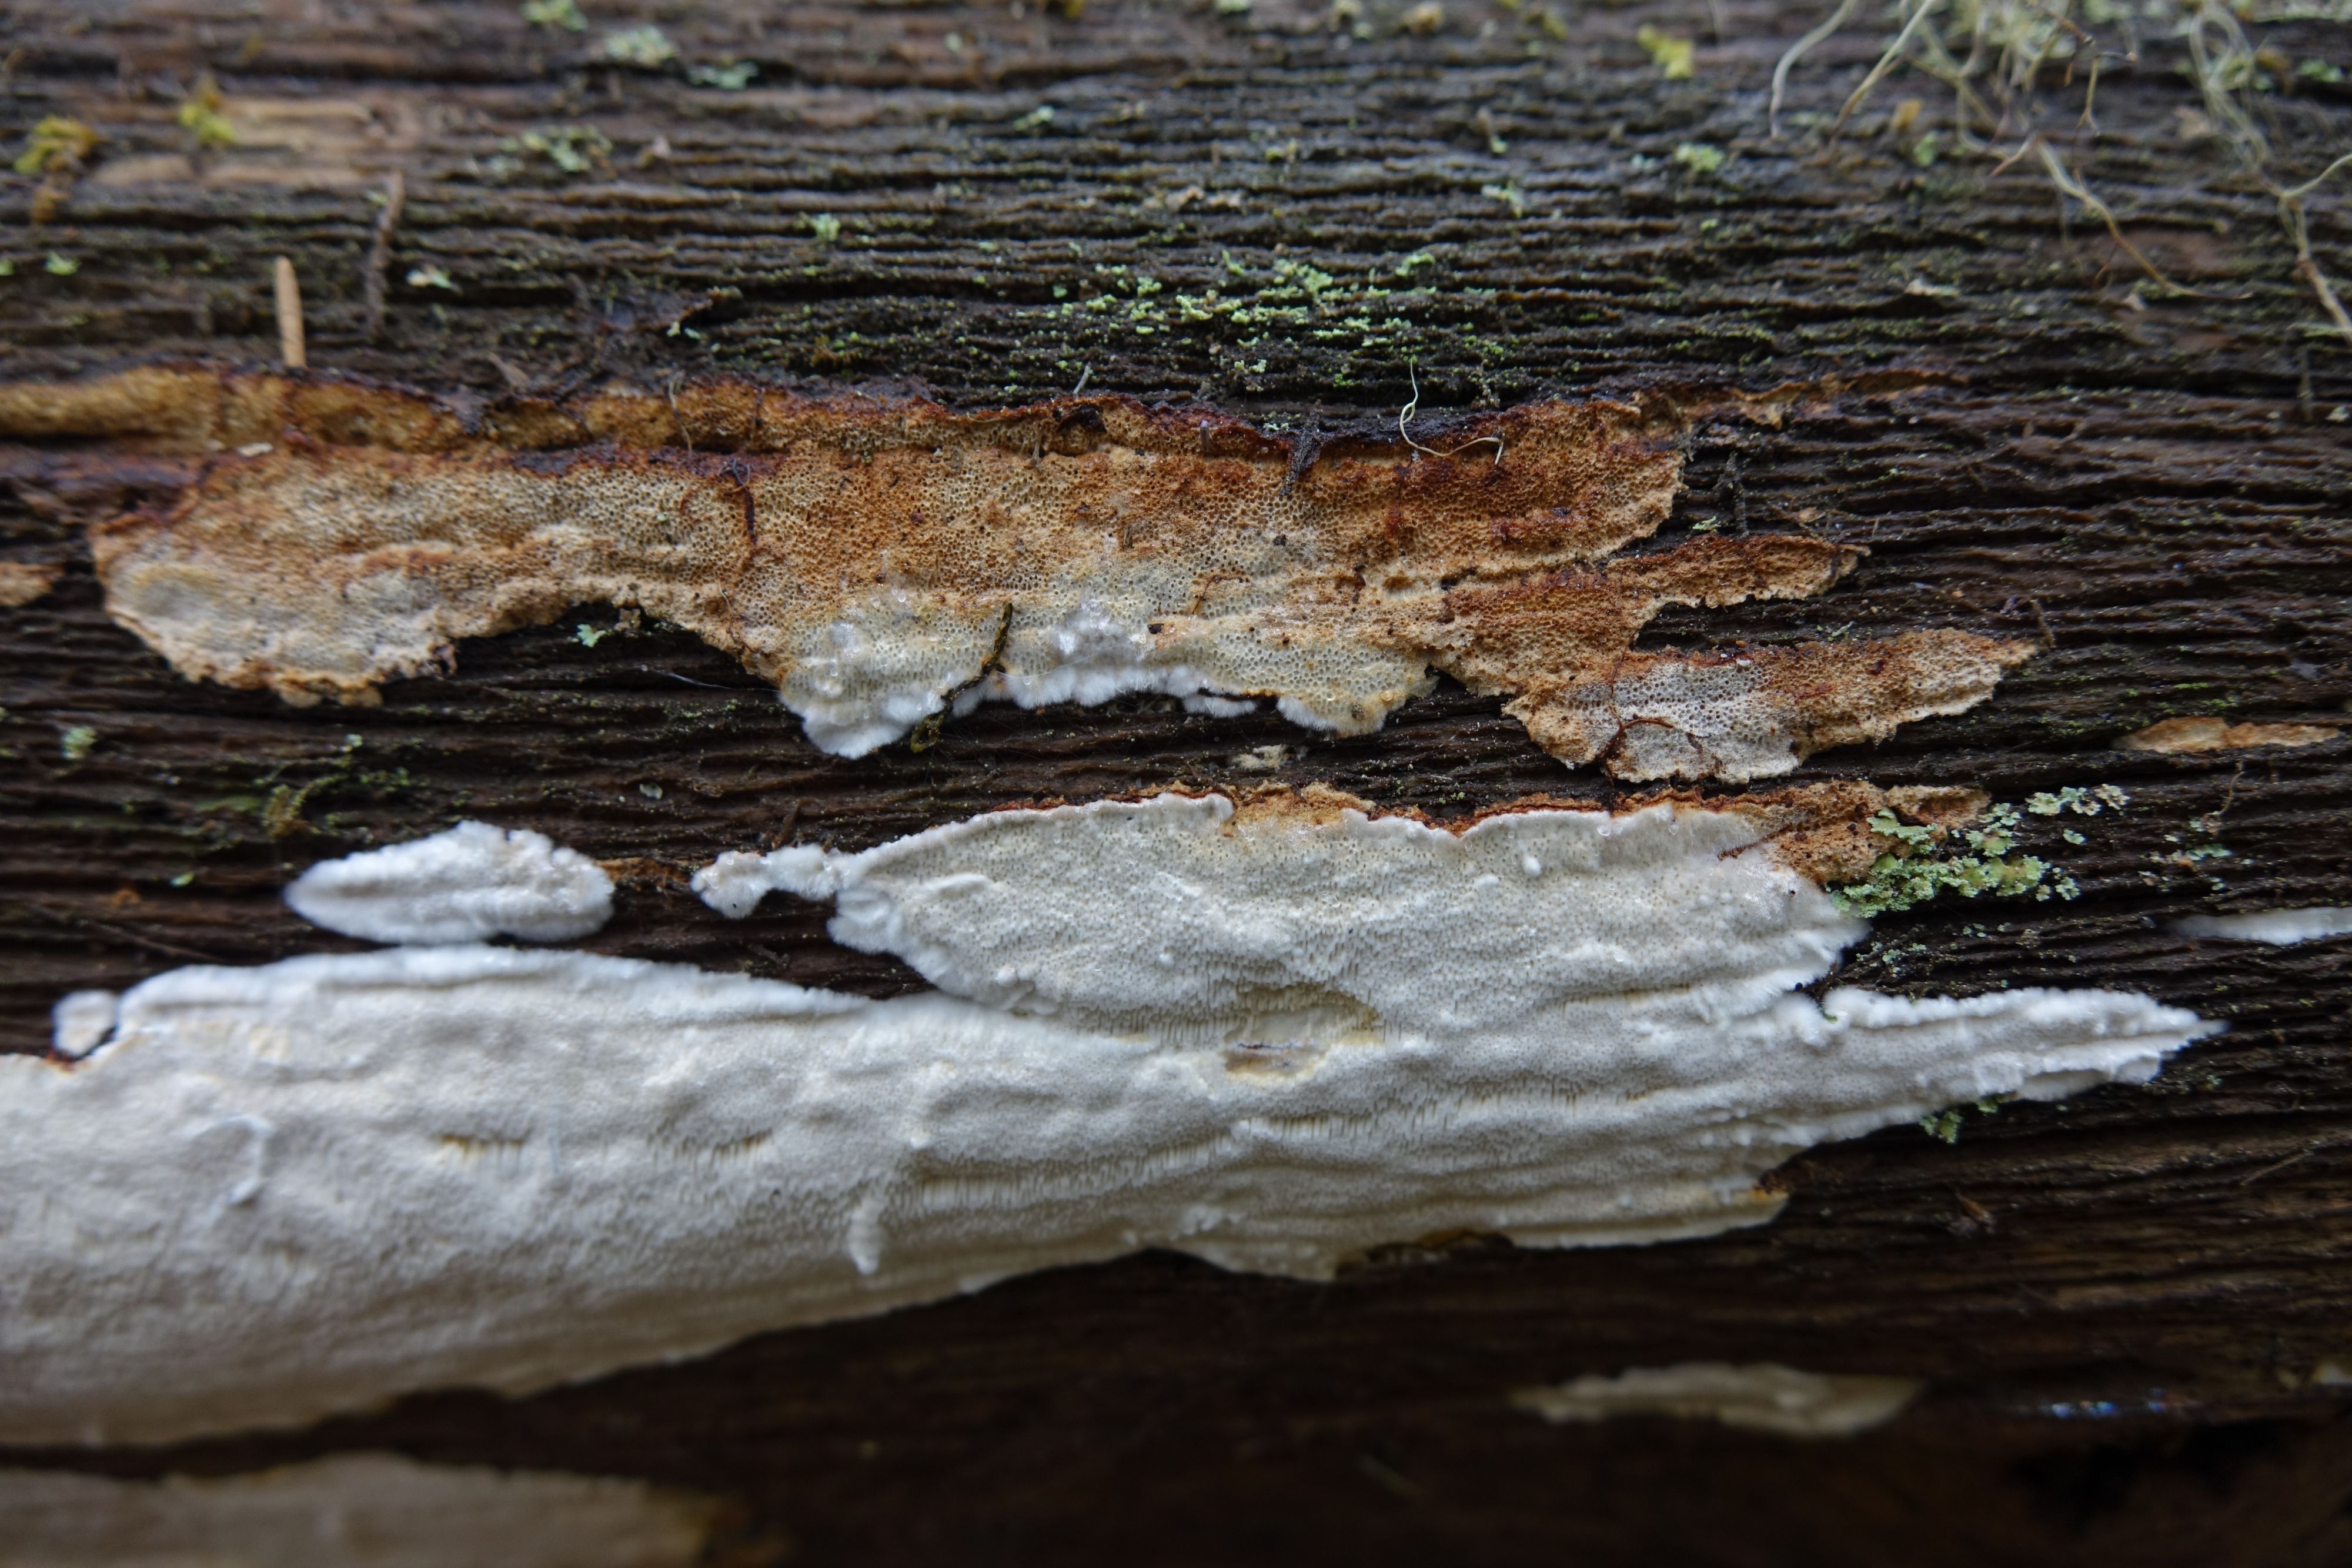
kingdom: Fungi
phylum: Basidiomycota
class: Agaricomycetes
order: Polyporales
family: Fomitopsidaceae
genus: Anthoporia
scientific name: Anthoporia albobrunnea
